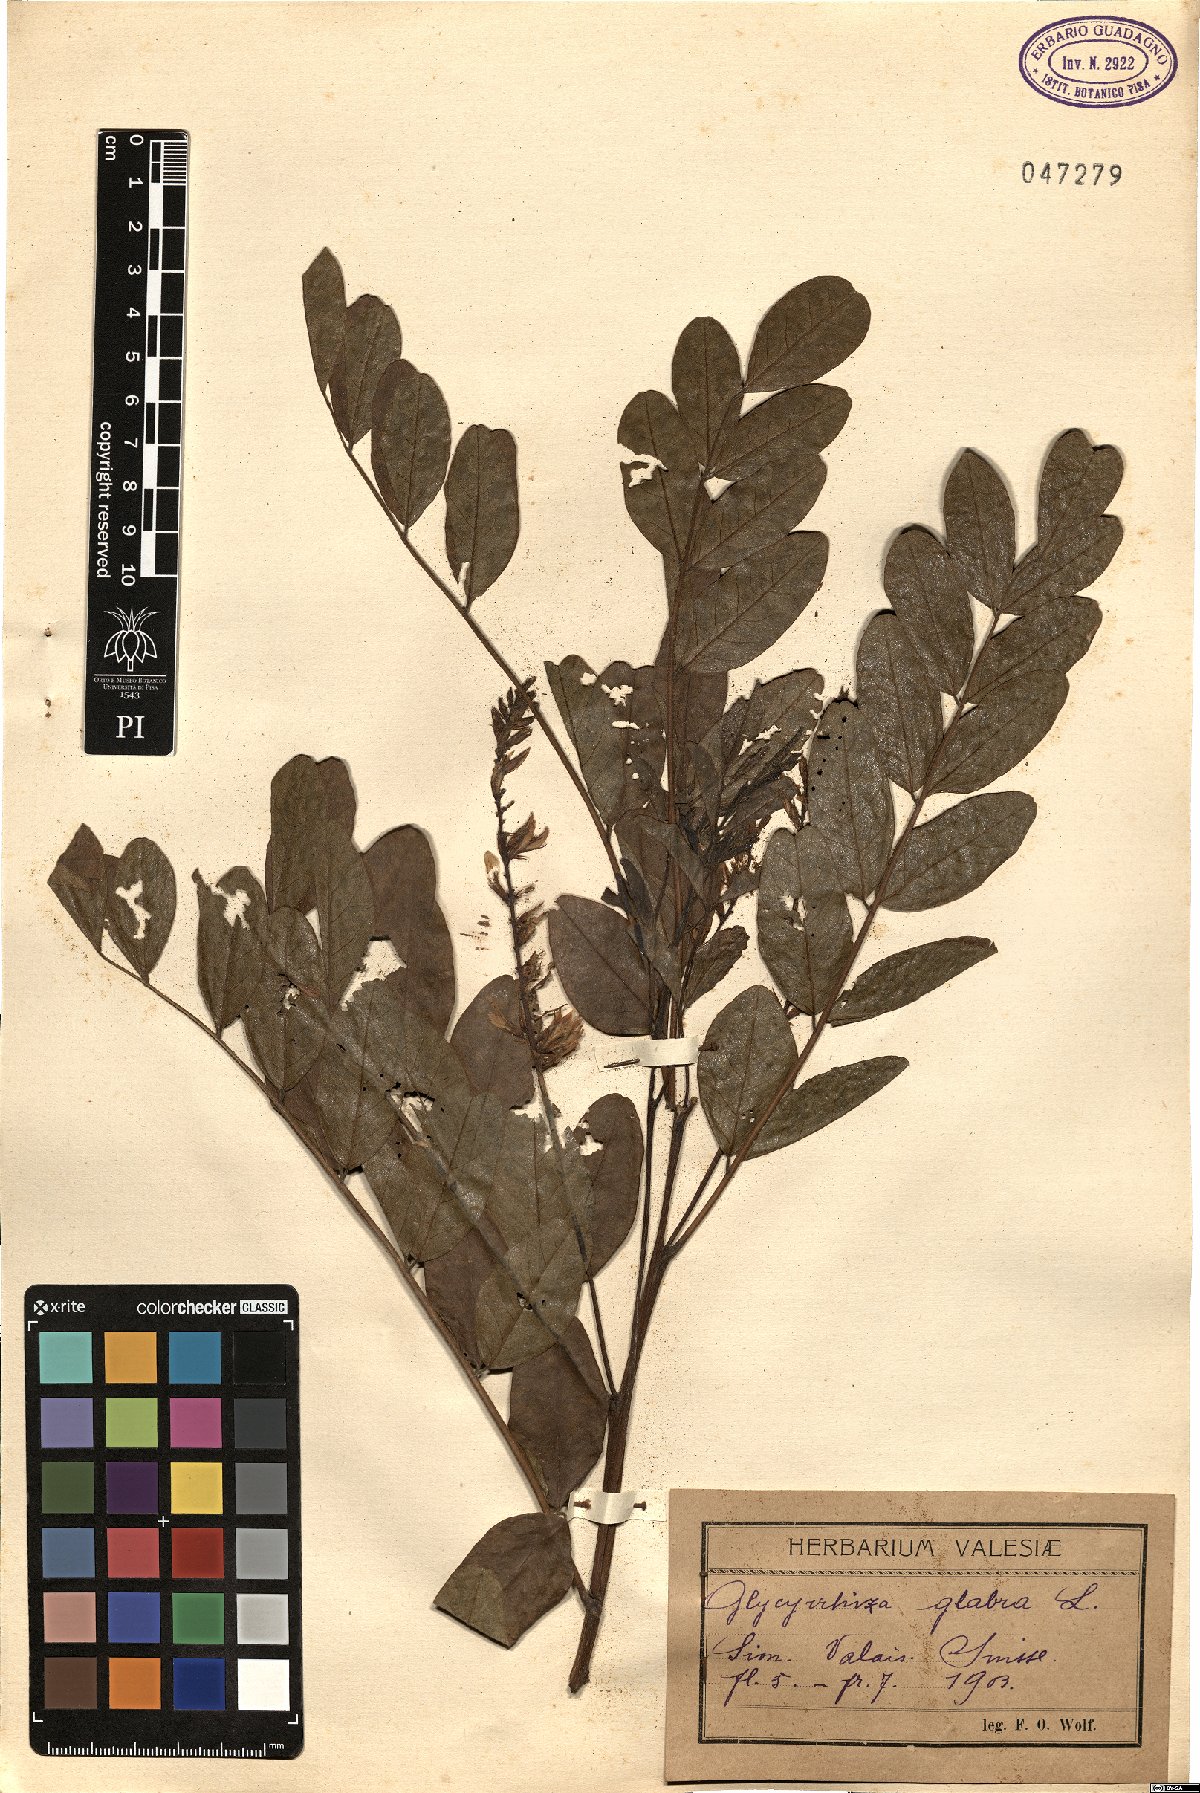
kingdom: Plantae
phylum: Tracheophyta
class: Magnoliopsida
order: Fabales
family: Fabaceae
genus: Glycyrrhiza
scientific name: Glycyrrhiza glabra
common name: Liquorice
